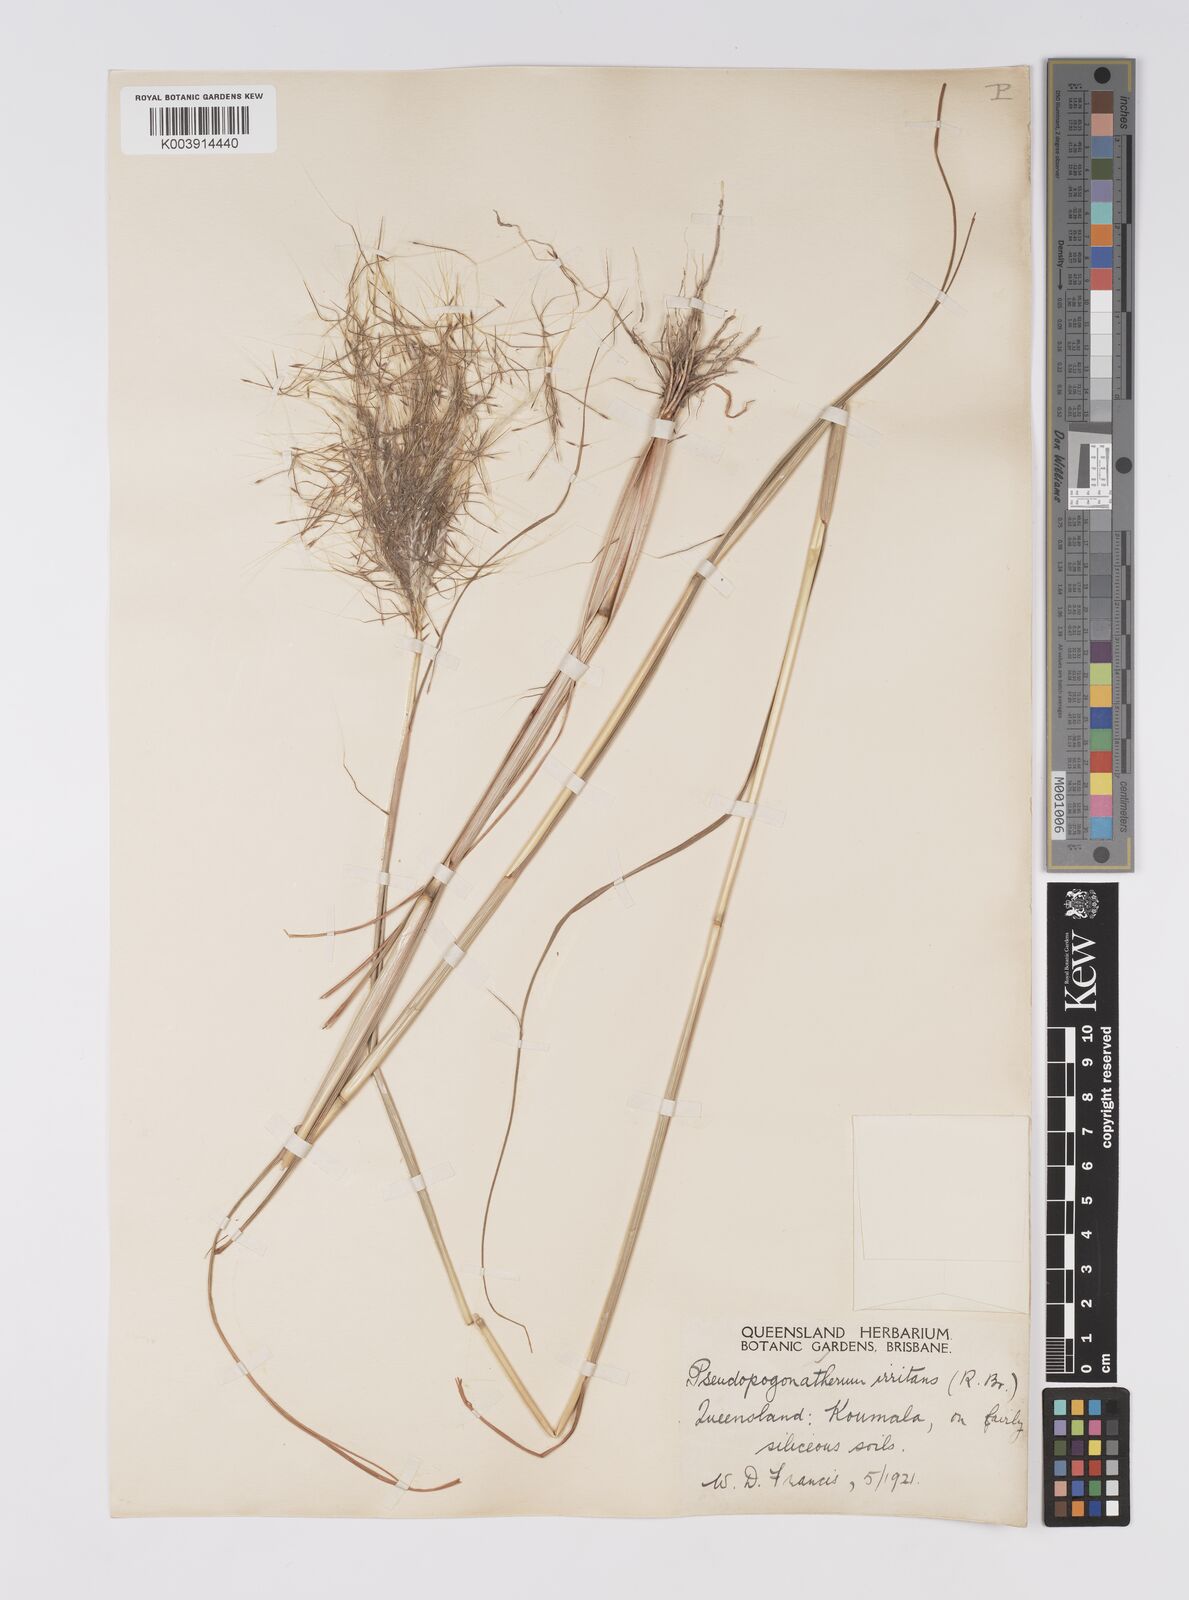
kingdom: Plantae
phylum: Tracheophyta
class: Liliopsida
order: Poales
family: Poaceae
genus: Pseudopogonatherum
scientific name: Pseudopogonatherum irritans
